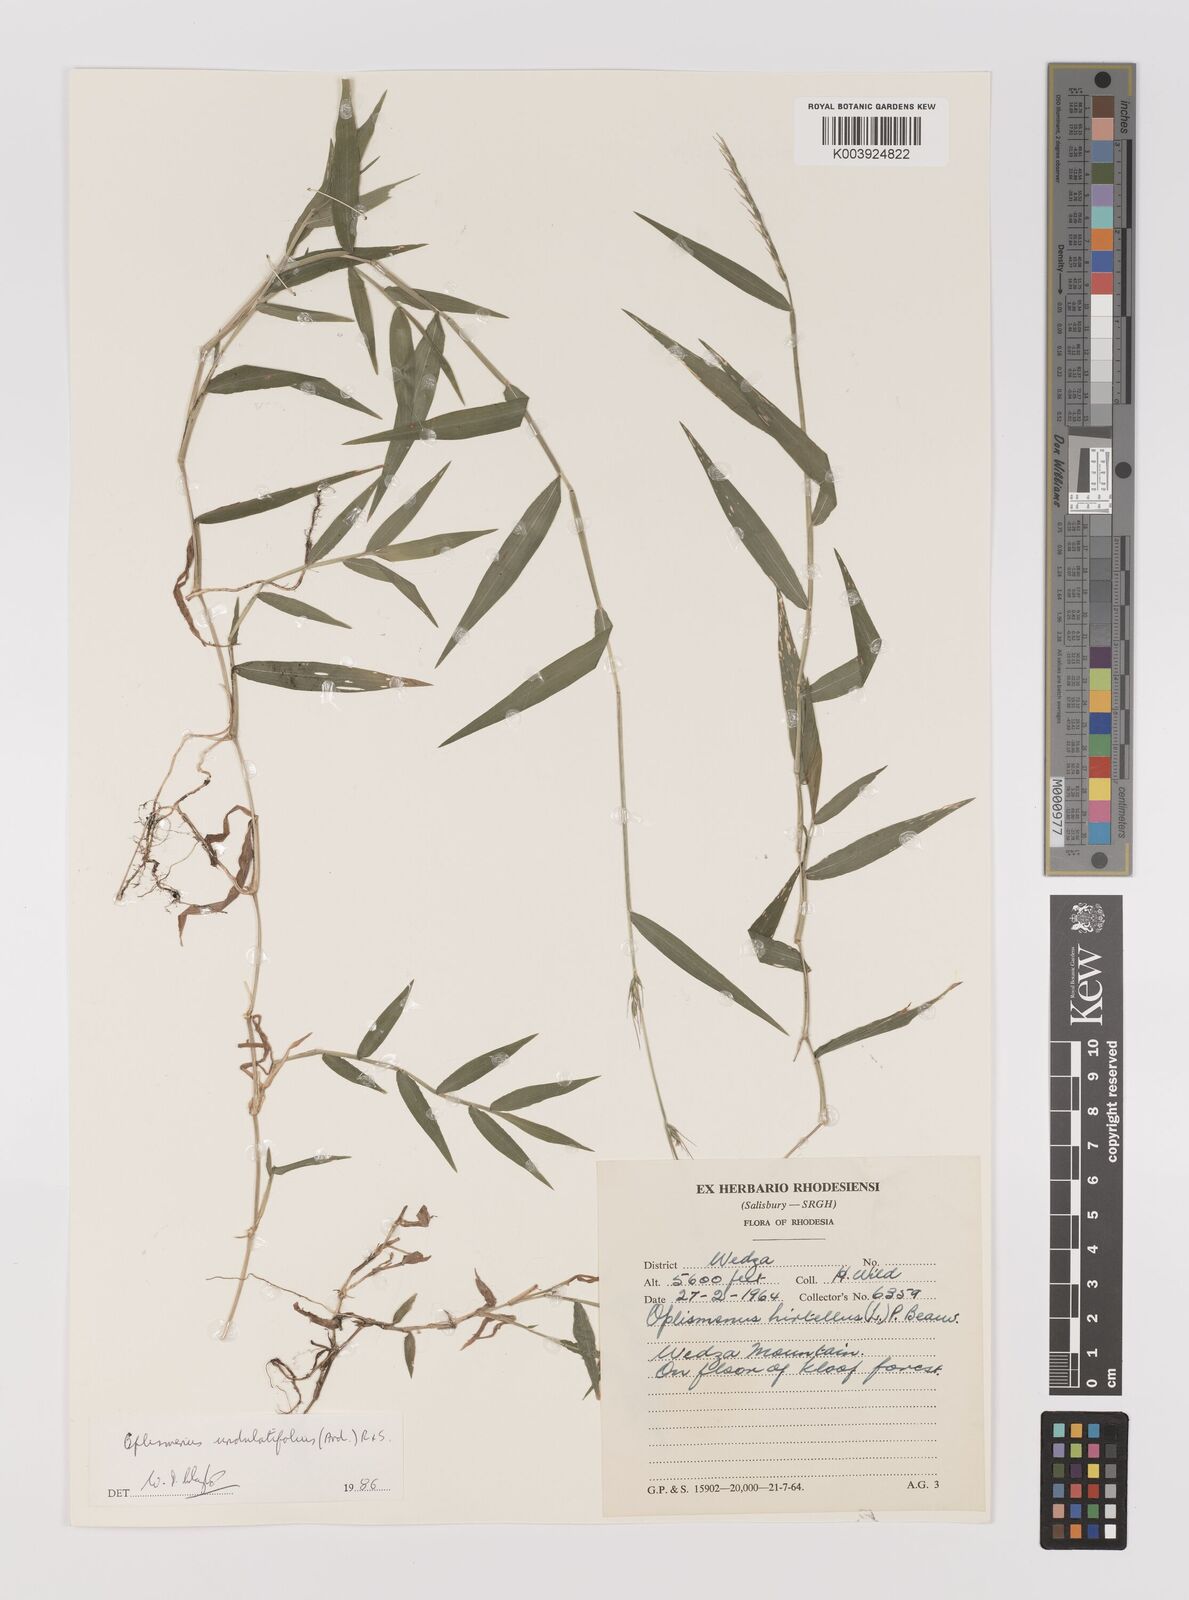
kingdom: Plantae
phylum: Tracheophyta
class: Liliopsida
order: Poales
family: Poaceae
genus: Oplismenus
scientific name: Oplismenus undulatifolius
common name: Wavyleaf basketgrass
